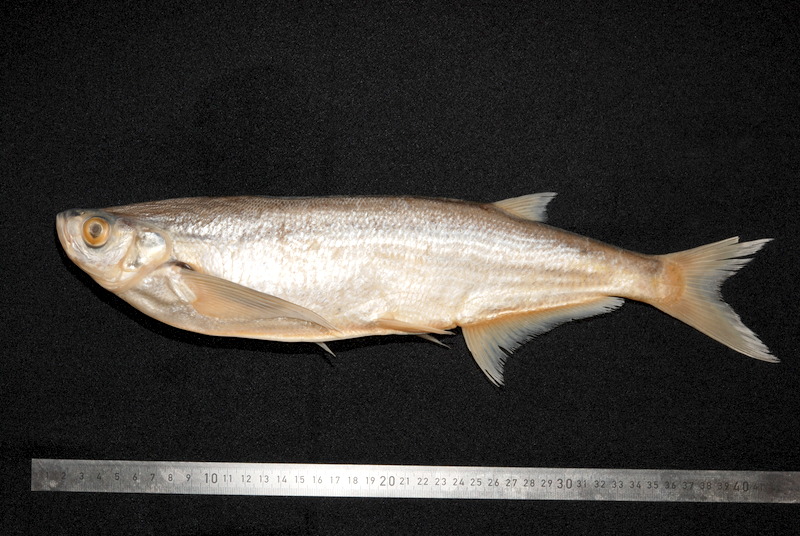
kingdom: Animalia
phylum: Chordata
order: Cypriniformes
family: Cyprinidae
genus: Pelecus
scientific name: Pelecus cultratus
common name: Ziege
